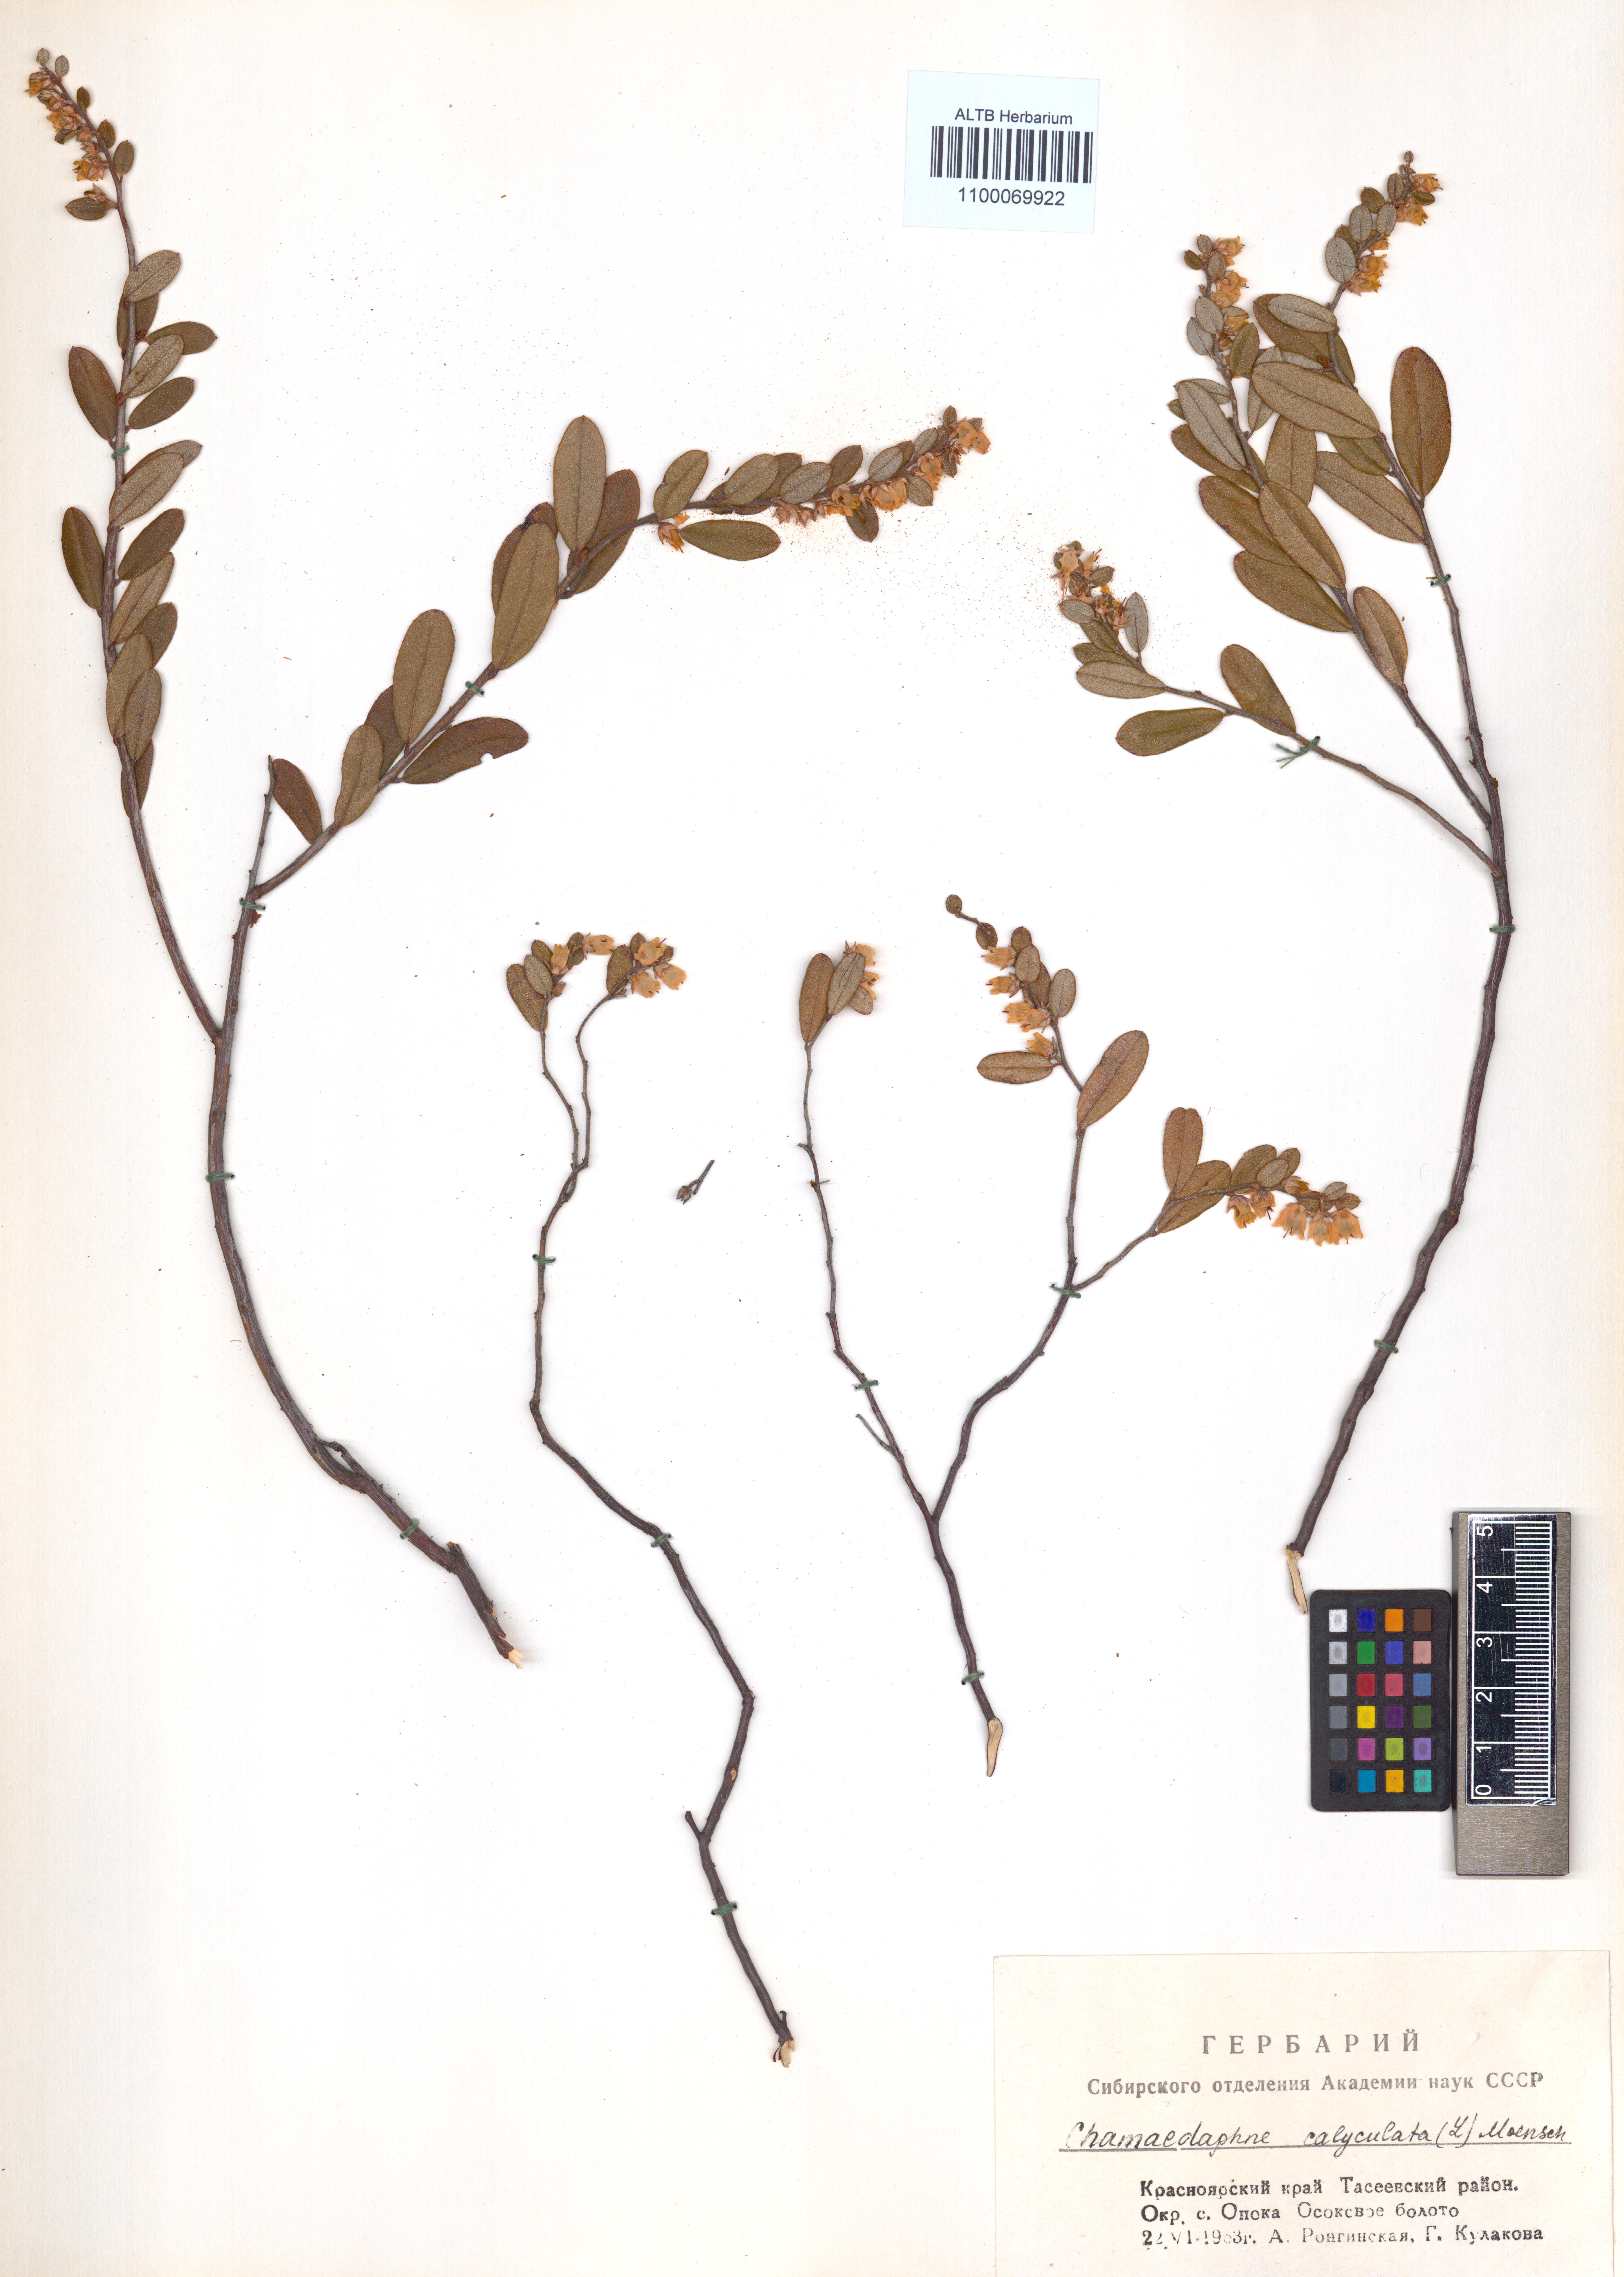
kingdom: Plantae
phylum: Tracheophyta
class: Magnoliopsida
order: Ericales
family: Ericaceae
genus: Chamaedaphne
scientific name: Chamaedaphne calyculata
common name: Leatherleaf
